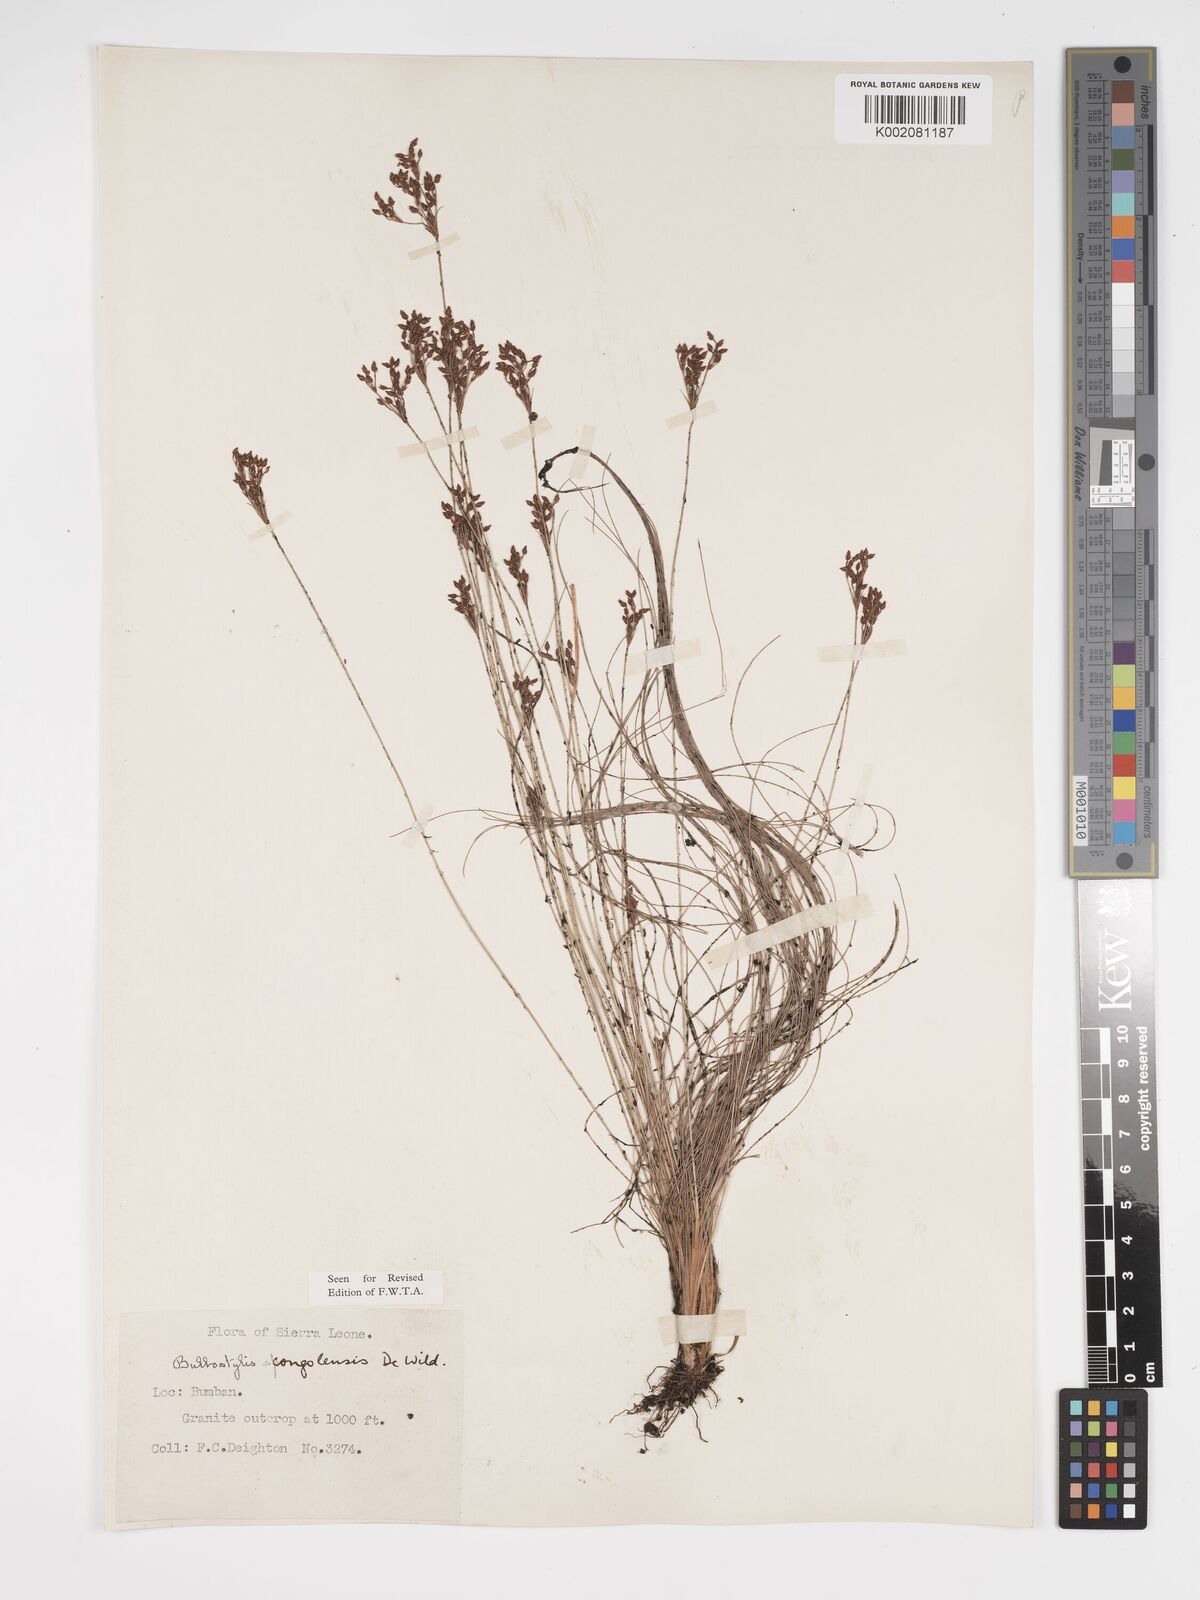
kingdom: Plantae
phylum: Tracheophyta
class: Liliopsida
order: Poales
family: Cyperaceae
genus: Bulbostylis
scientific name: Bulbostylis congolensis
